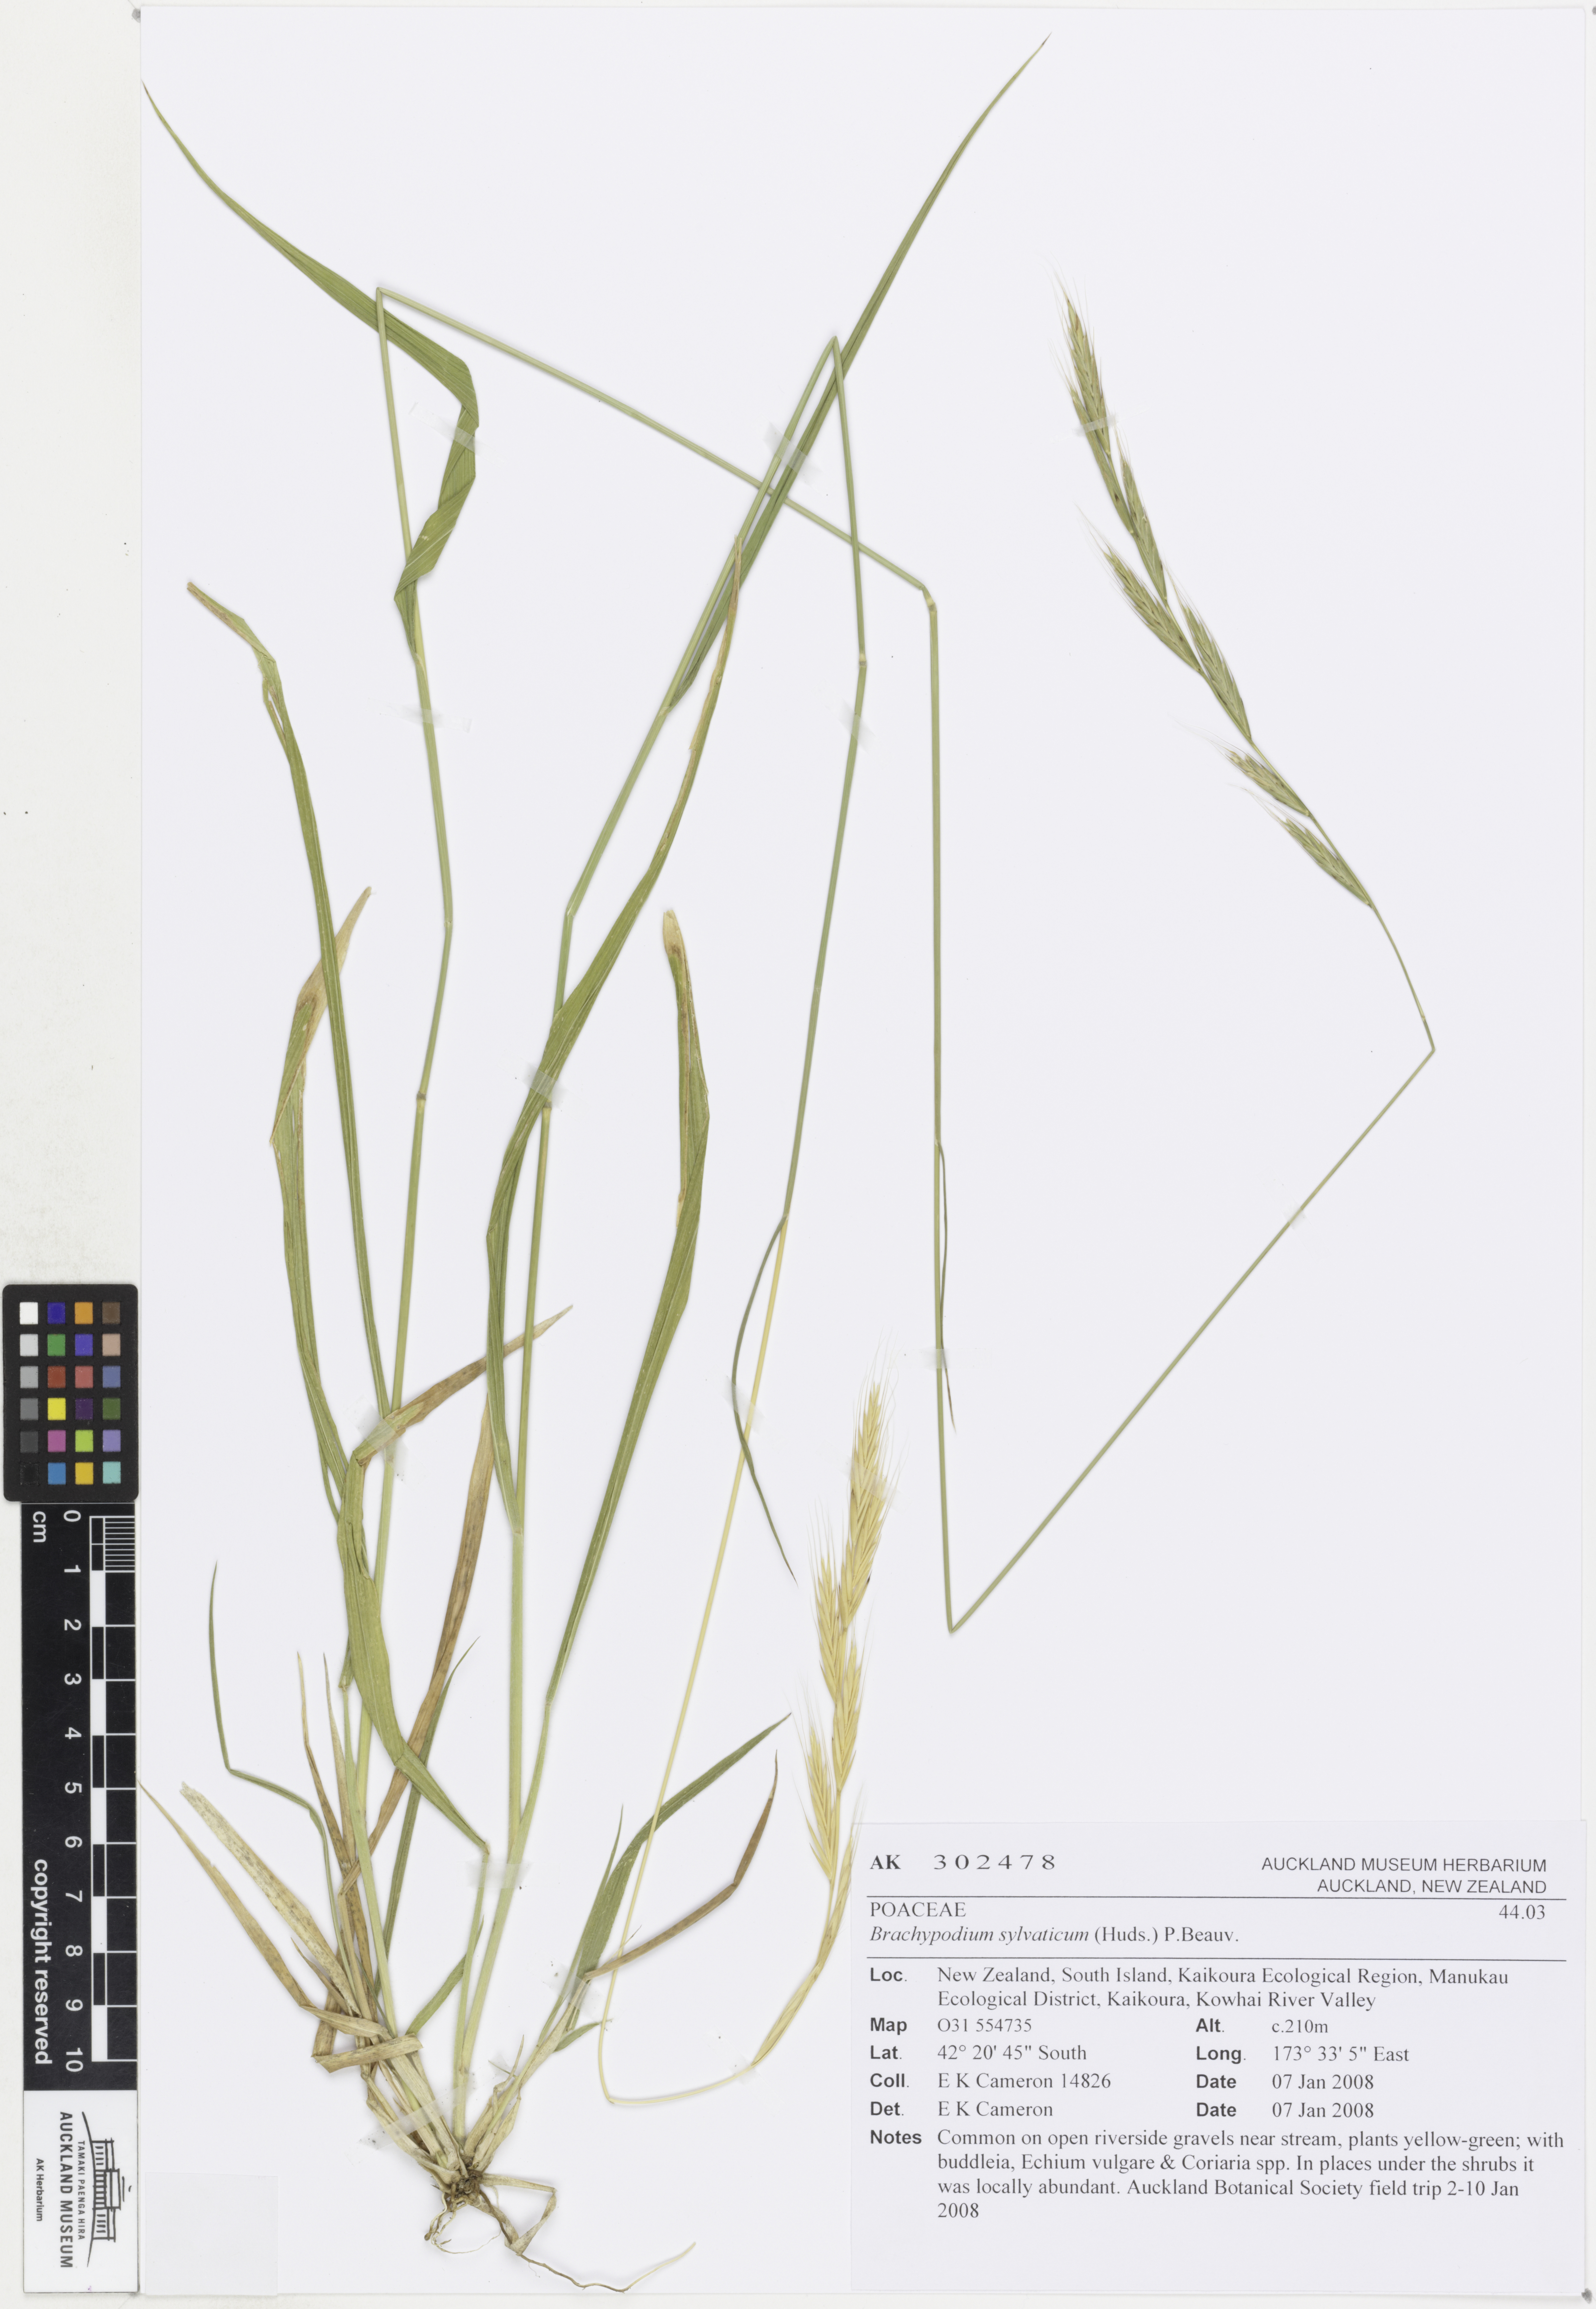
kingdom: Plantae
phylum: Tracheophyta
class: Liliopsida
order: Poales
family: Poaceae
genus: Brachypodium
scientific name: Brachypodium sylvaticum
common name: False-brome
